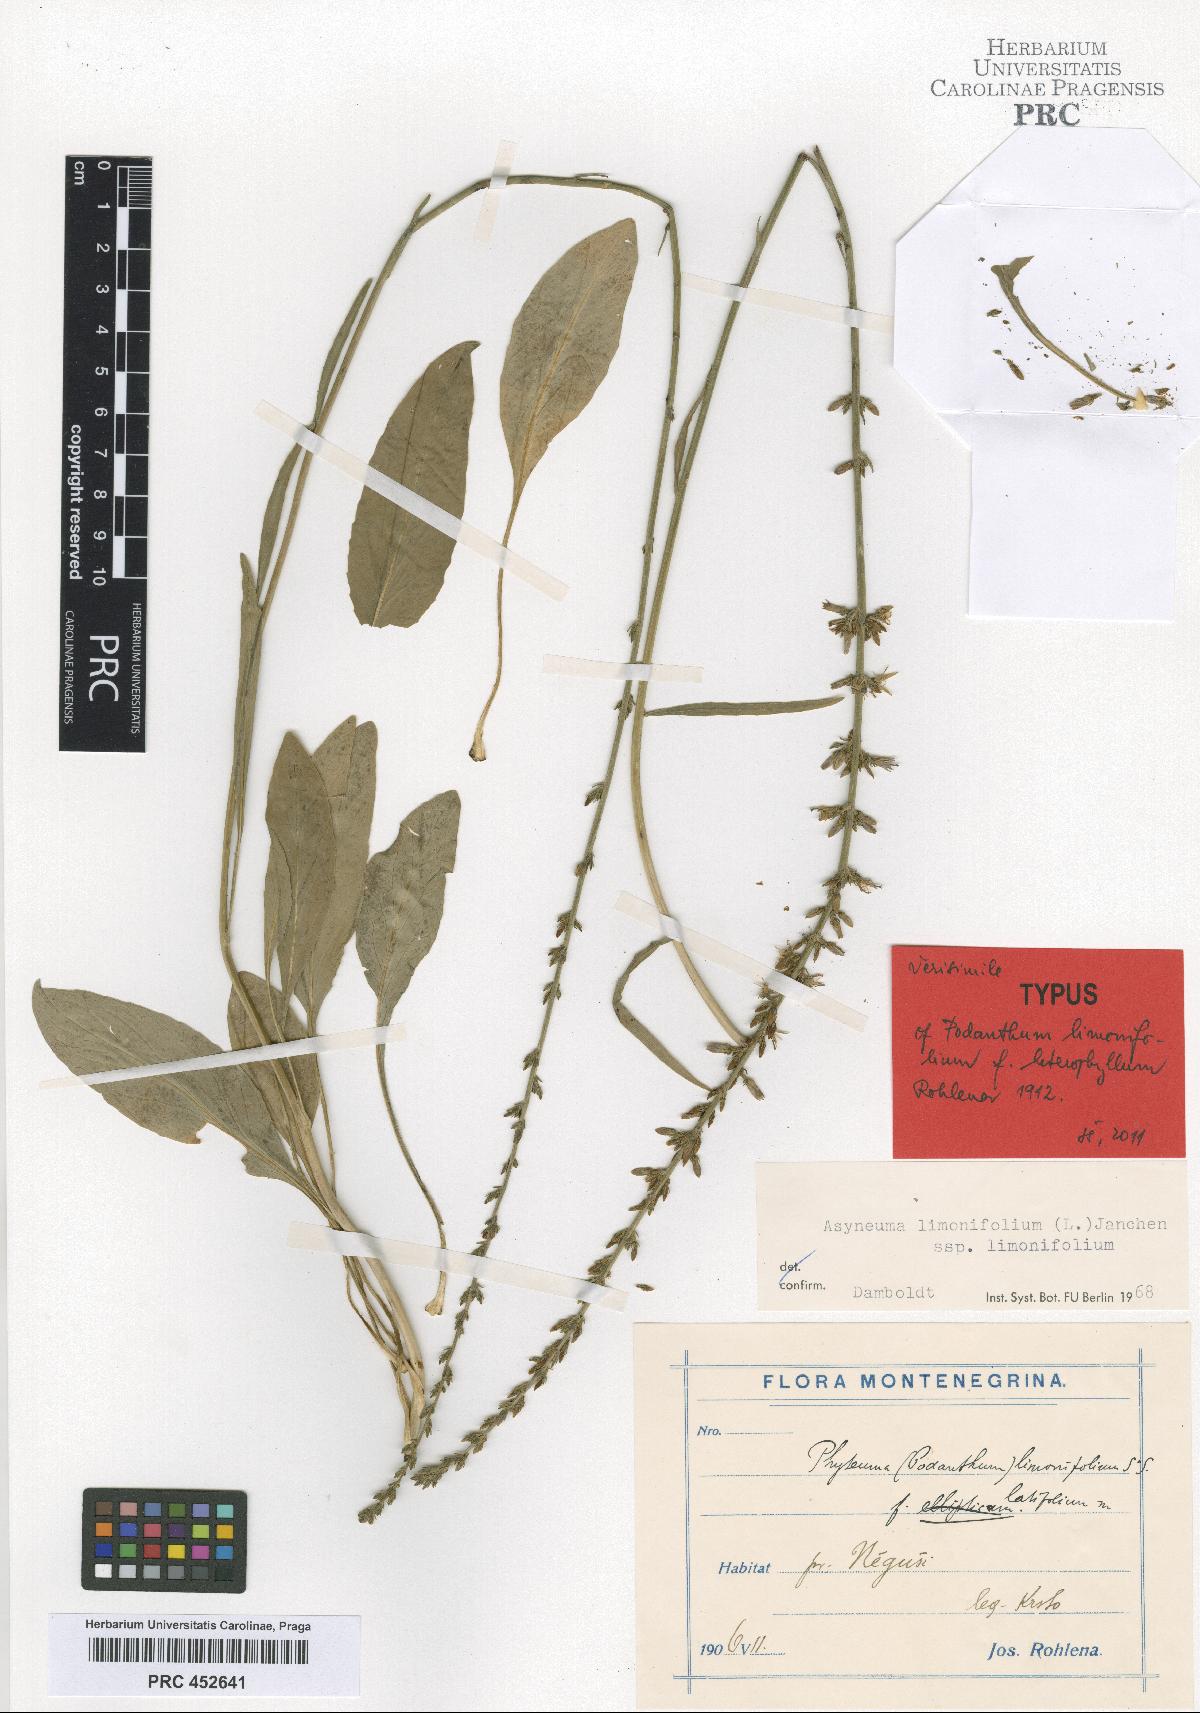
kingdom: Plantae
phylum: Tracheophyta
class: Magnoliopsida
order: Asterales
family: Campanulaceae
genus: Asyneuma
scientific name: Asyneuma limonifolium
